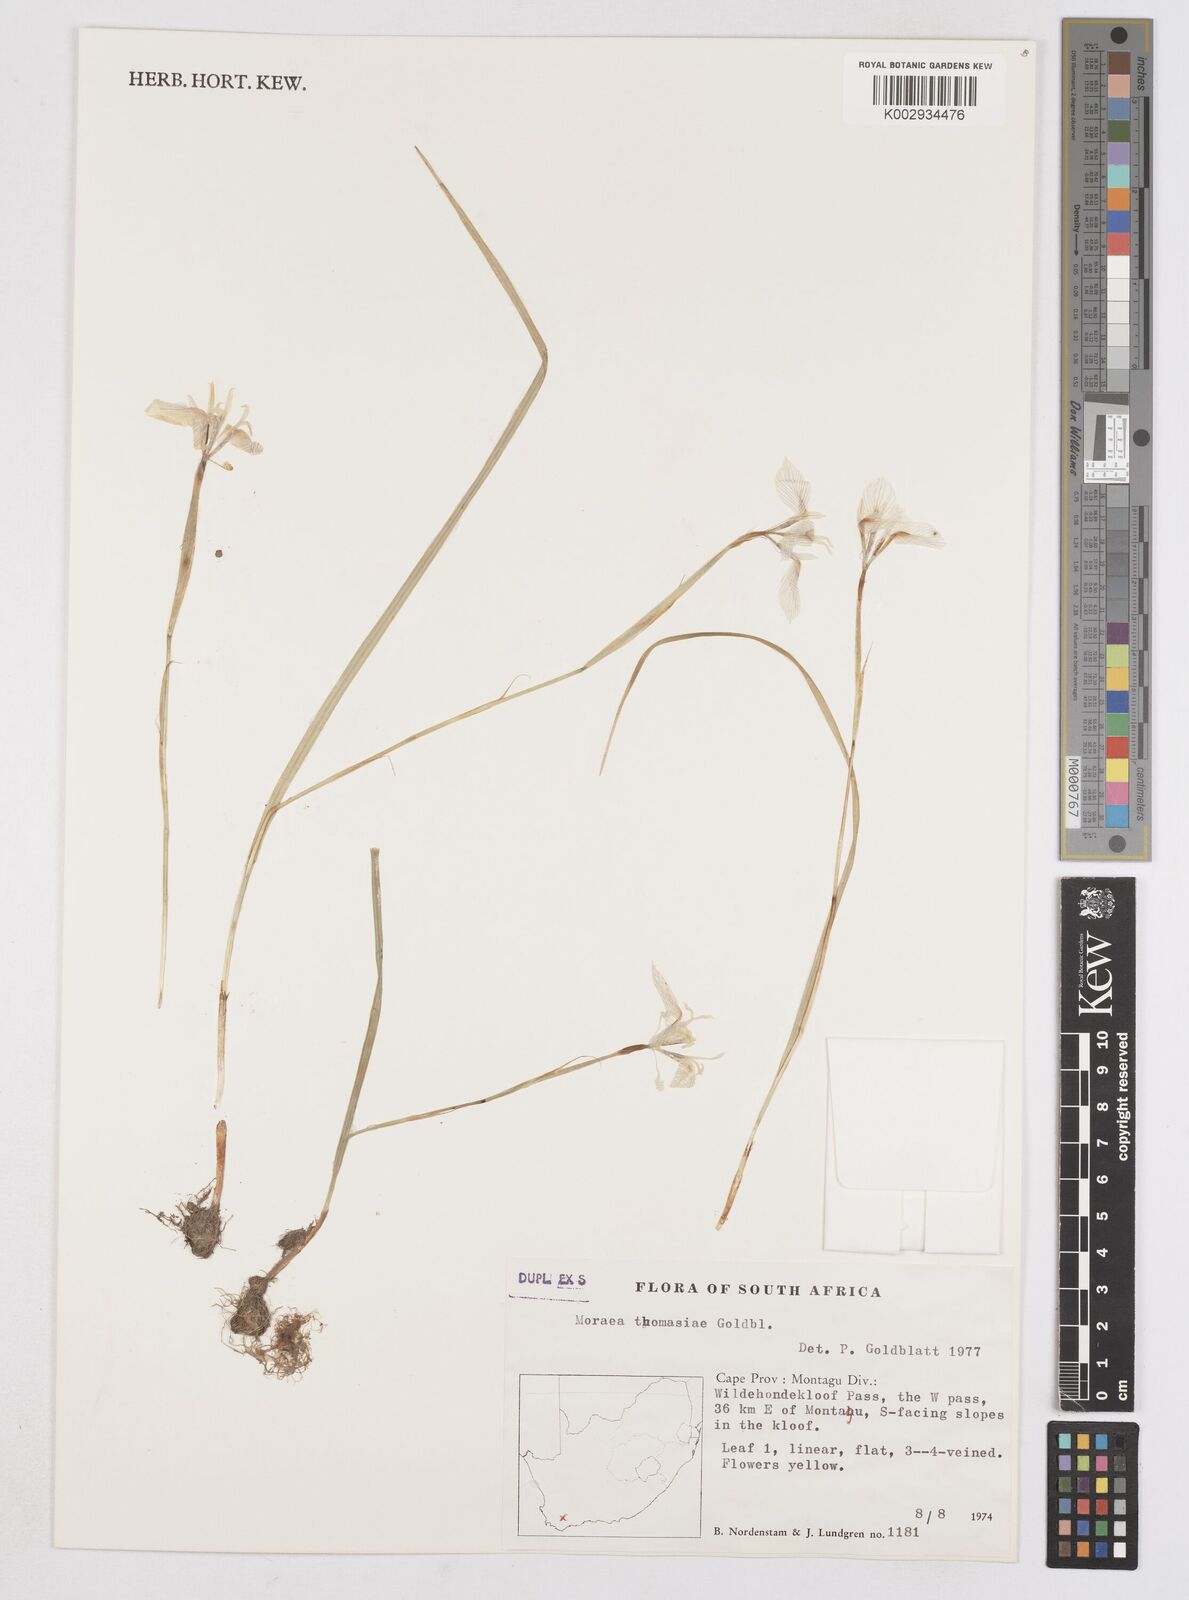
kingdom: Plantae
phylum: Tracheophyta
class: Liliopsida
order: Asparagales
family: Iridaceae
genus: Moraea
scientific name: Moraea thomasiae
